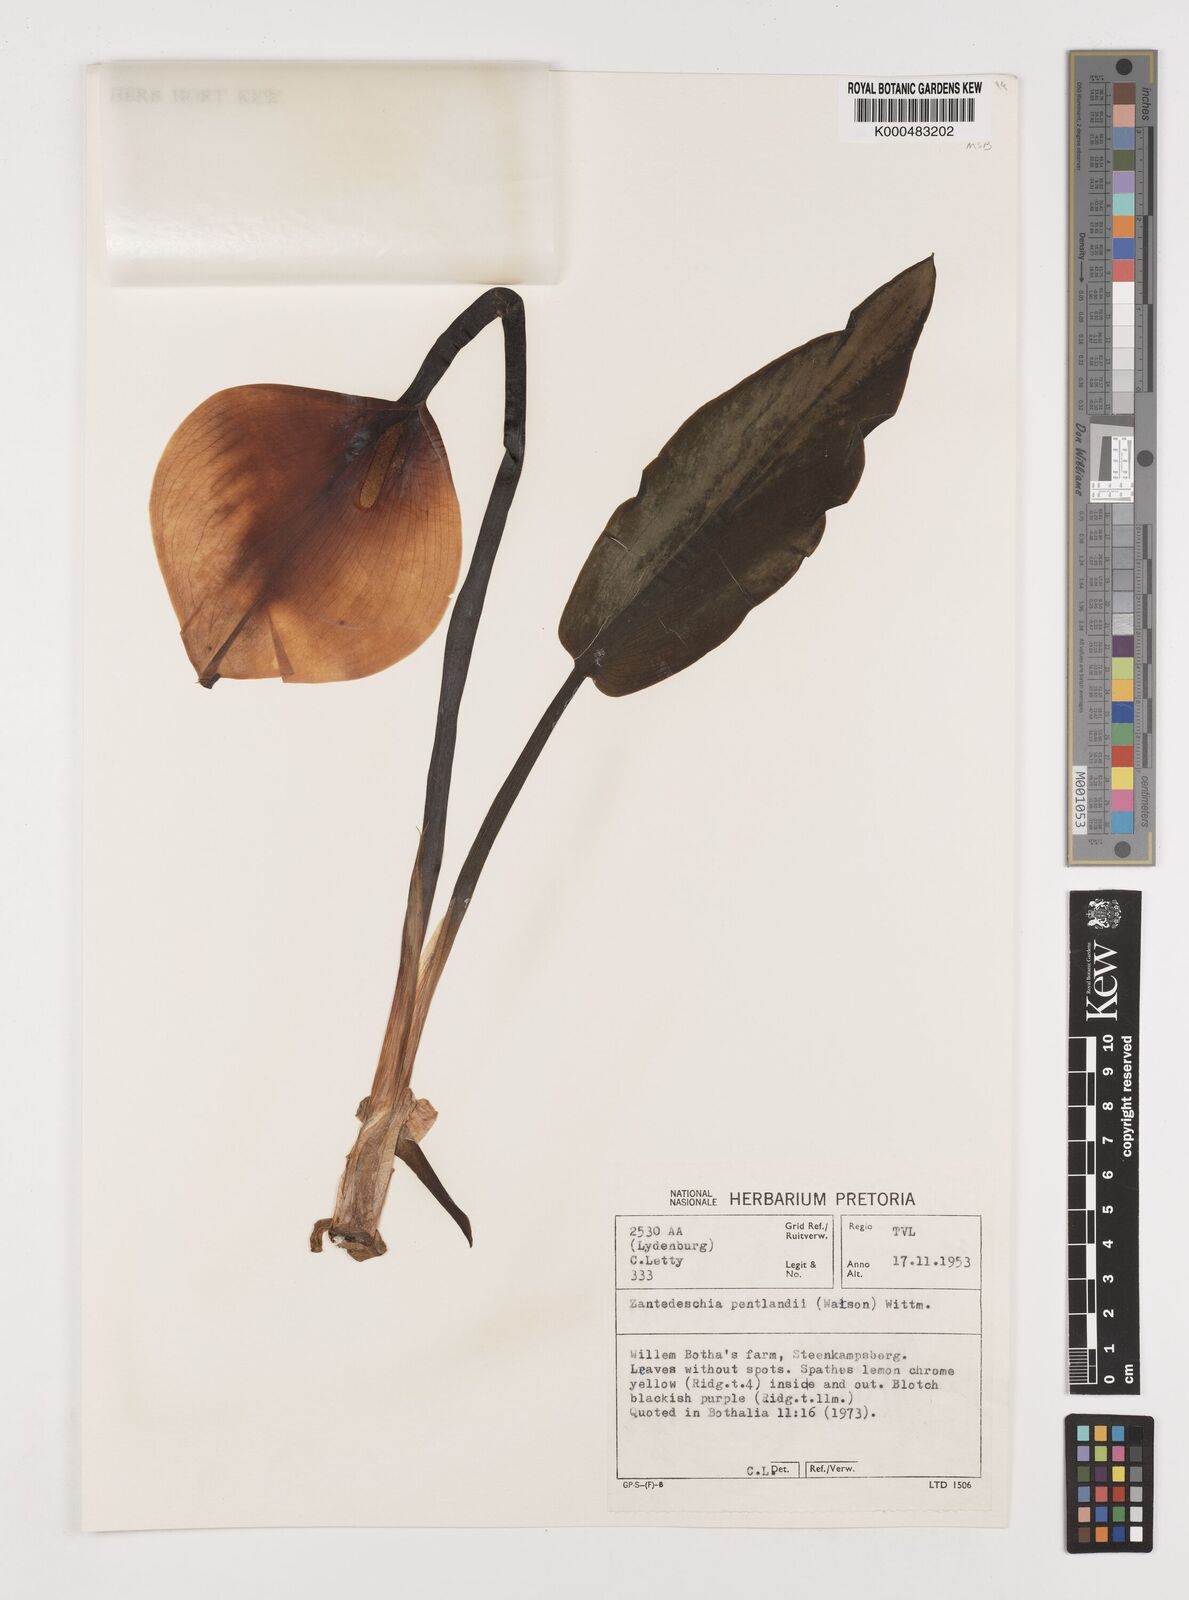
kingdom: Plantae
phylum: Tracheophyta
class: Liliopsida
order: Alismatales
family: Araceae
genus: Zantedeschia
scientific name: Zantedeschia pentlandii
